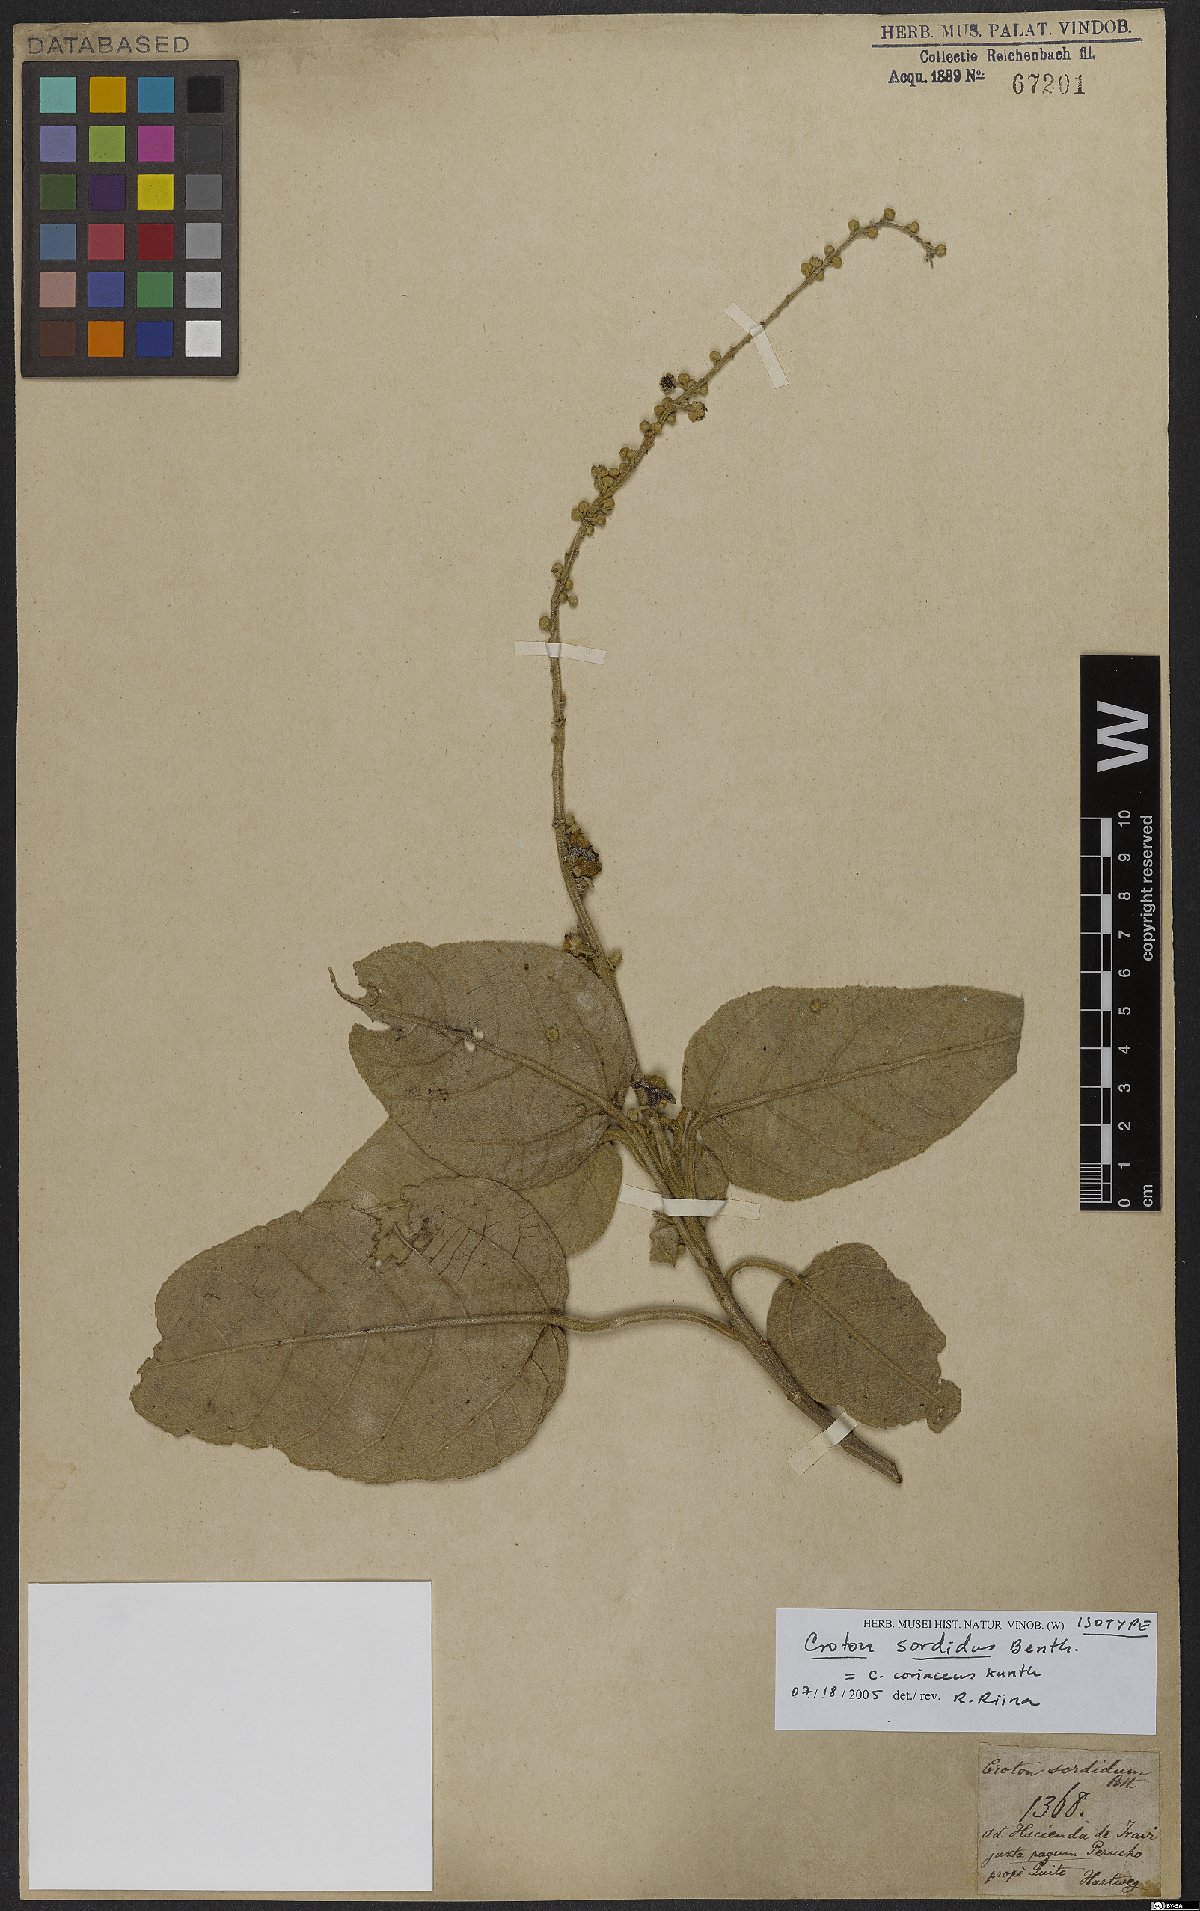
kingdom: Plantae
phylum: Tracheophyta
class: Magnoliopsida
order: Malpighiales
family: Euphorbiaceae
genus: Croton
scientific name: Croton coriaceus
